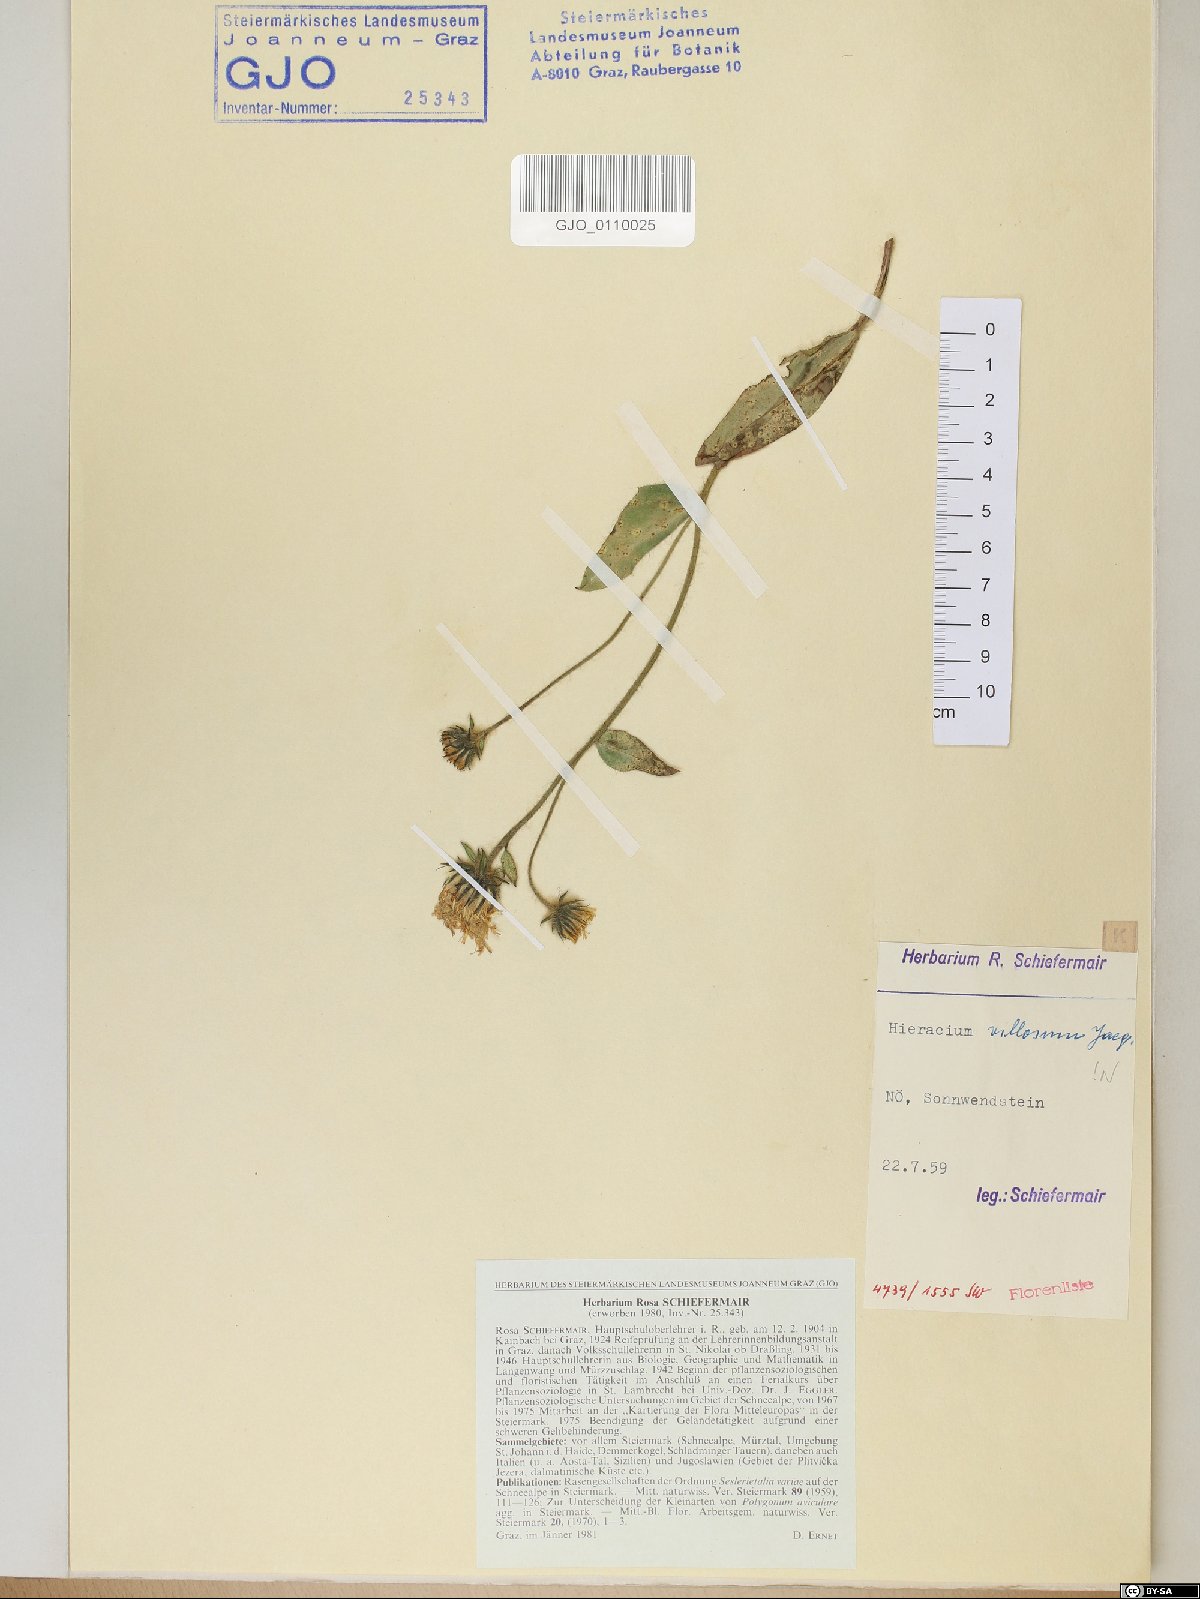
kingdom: Plantae
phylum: Tracheophyta
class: Magnoliopsida
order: Asterales
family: Asteraceae
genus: Hieracium
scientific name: Hieracium villosum
